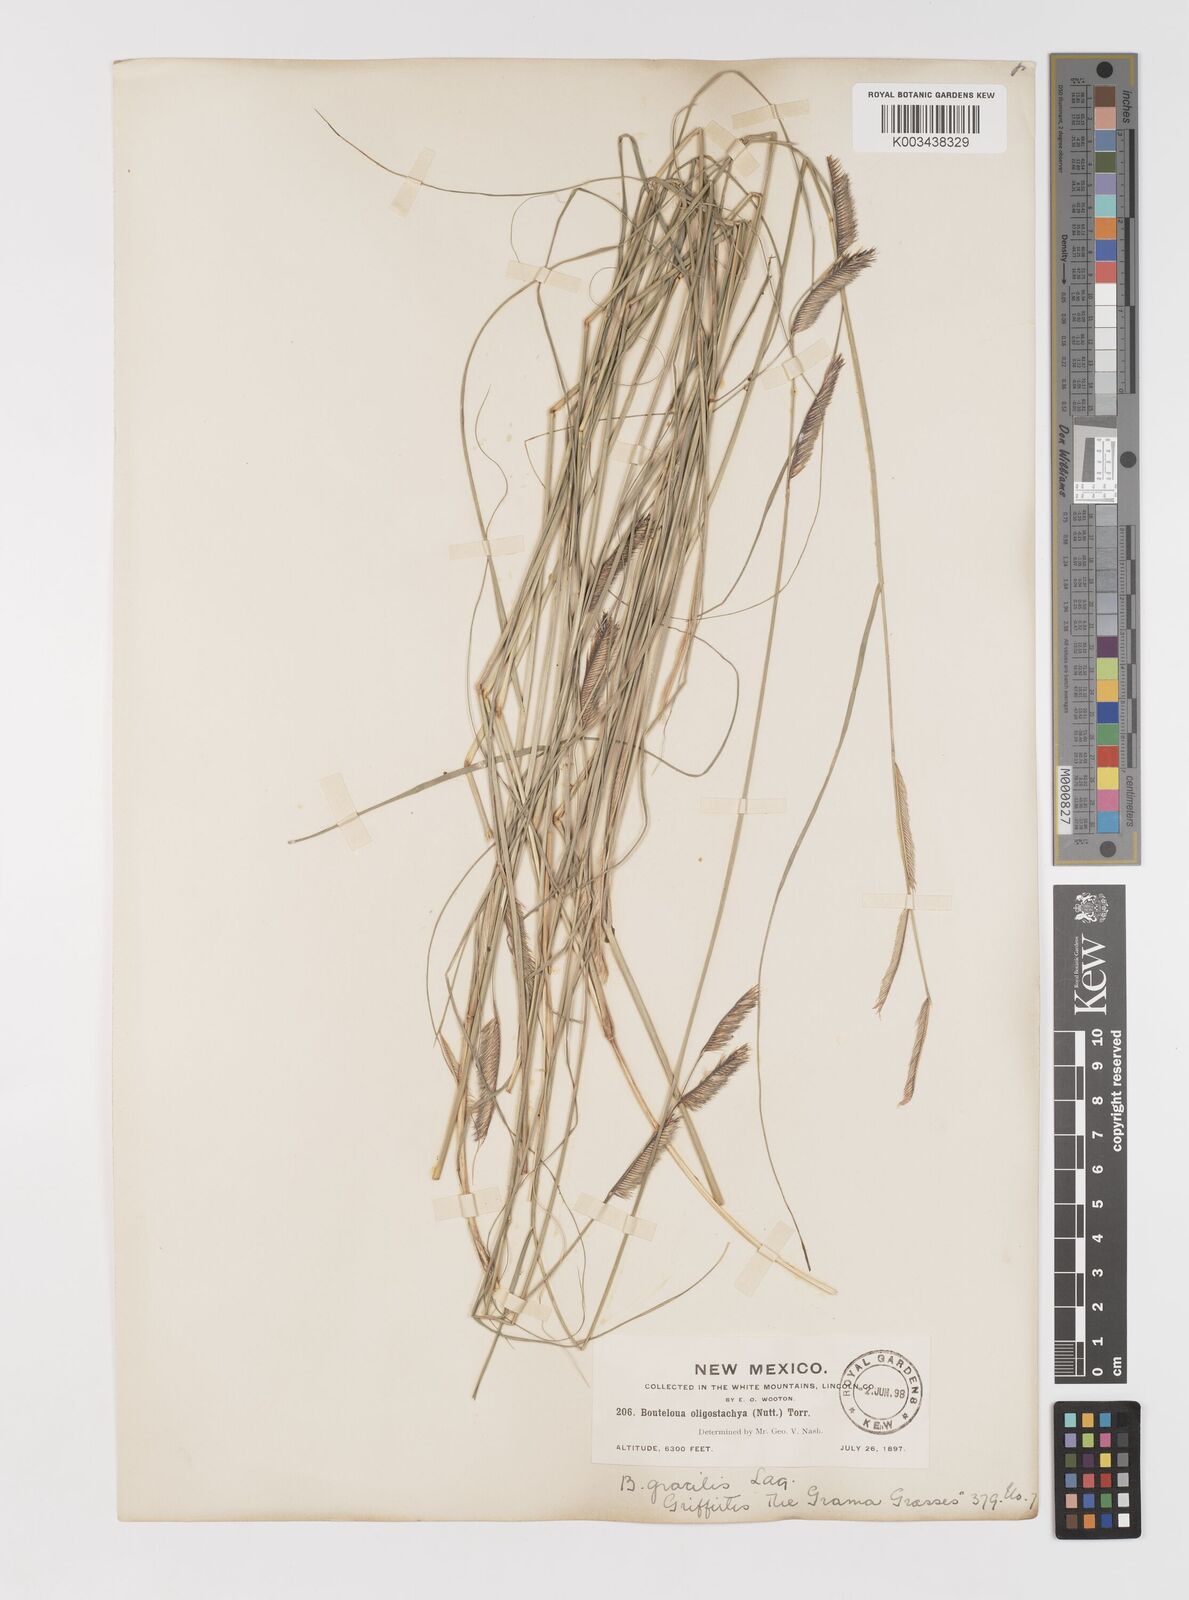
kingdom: Plantae
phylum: Tracheophyta
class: Liliopsida
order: Poales
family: Poaceae
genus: Bouteloua
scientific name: Bouteloua
